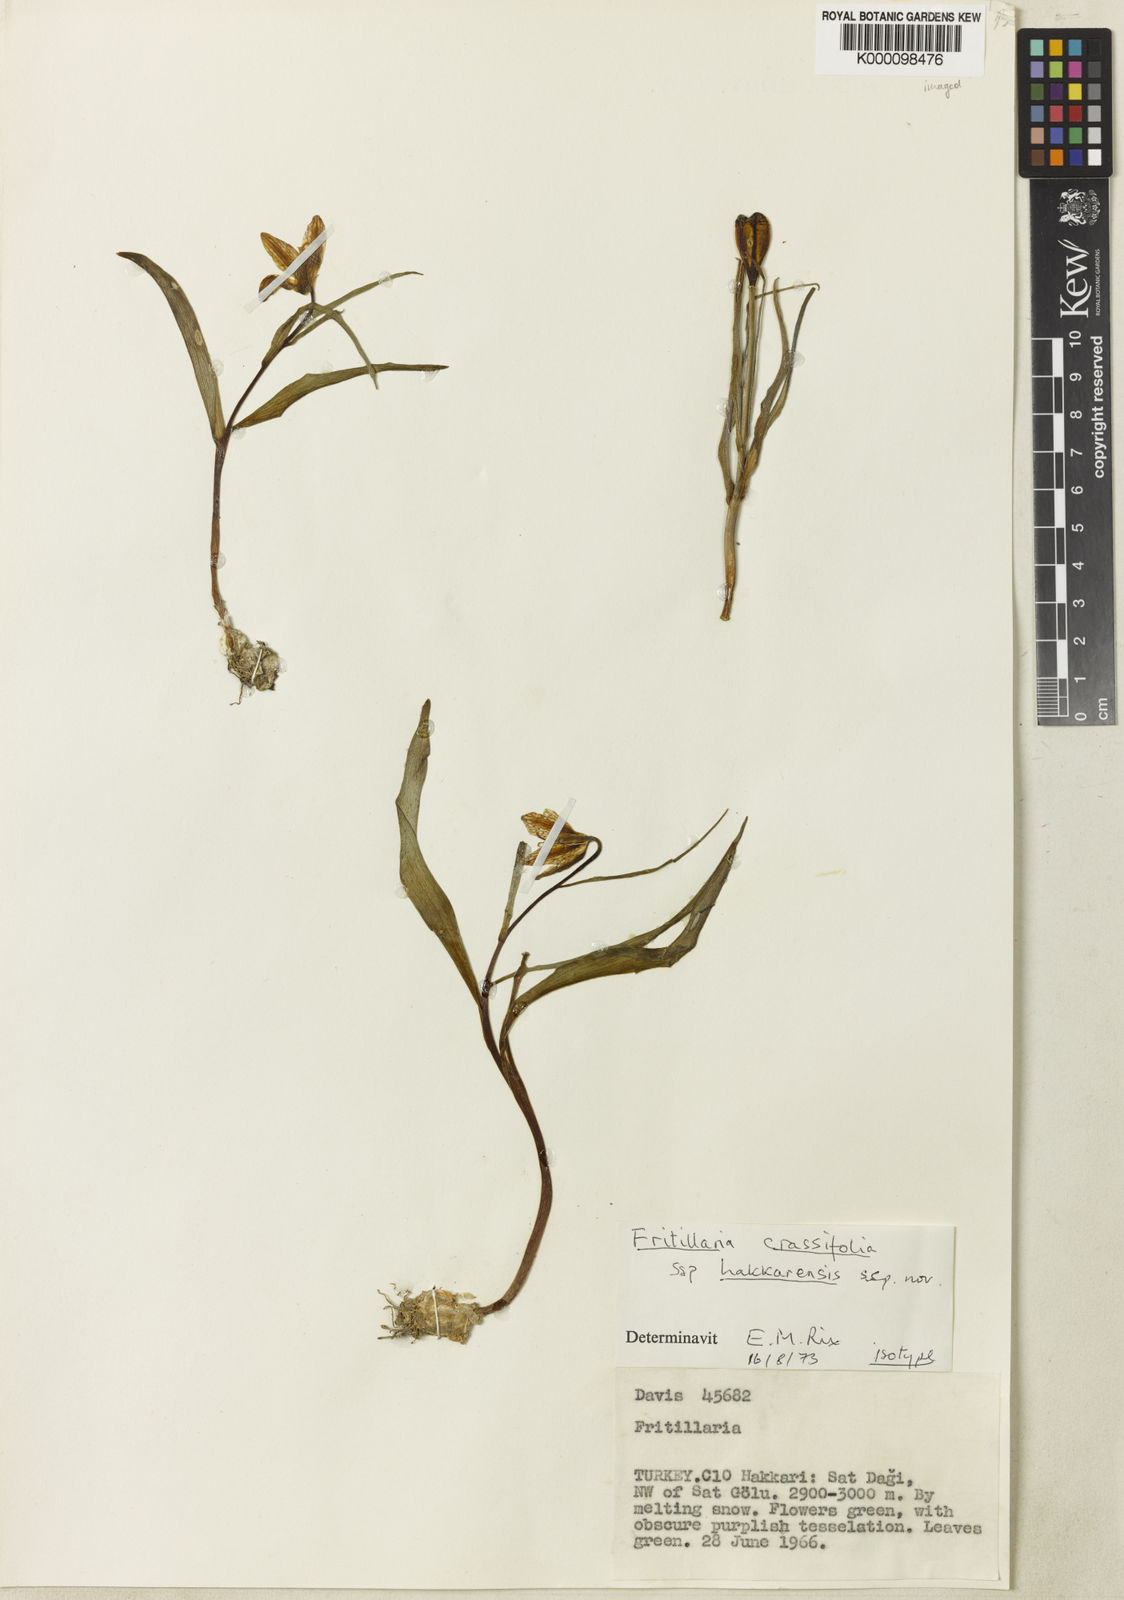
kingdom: Plantae
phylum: Tracheophyta
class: Liliopsida
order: Liliales
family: Liliaceae
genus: Fritillaria
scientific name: Fritillaria hakkarensis
